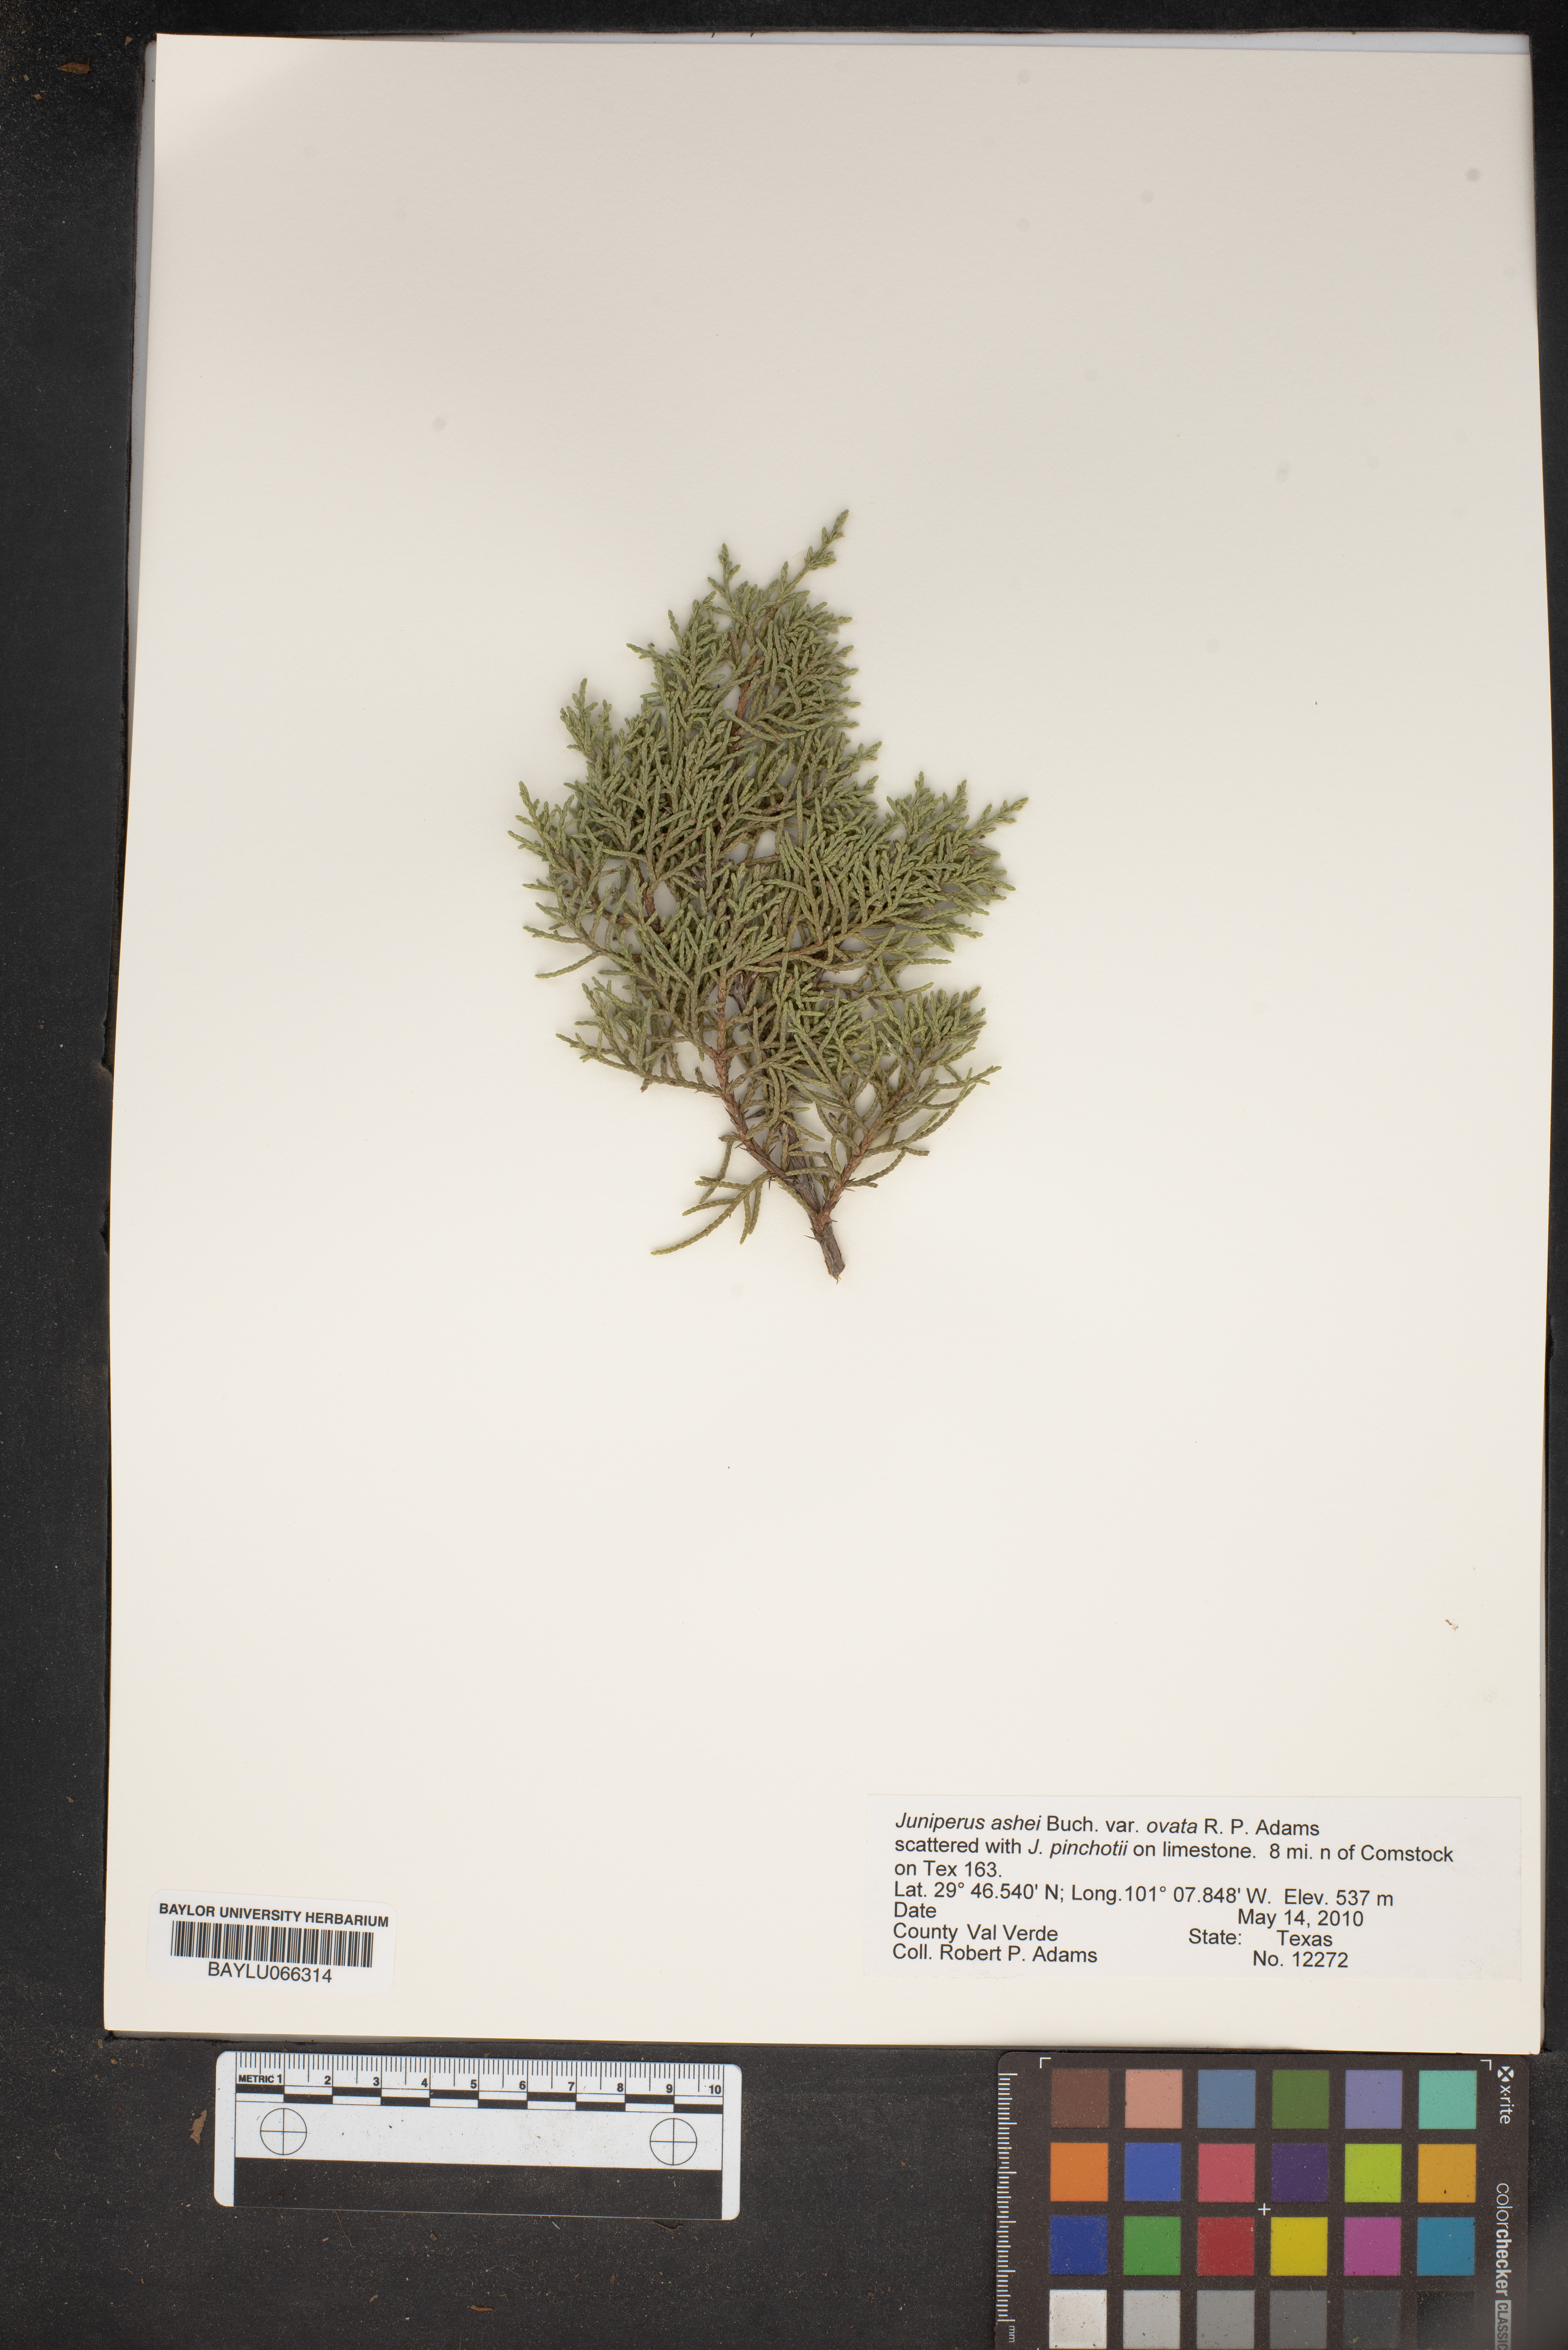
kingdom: Plantae
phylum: Tracheophyta
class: Pinopsida
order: Pinales
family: Cupressaceae
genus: Juniperus
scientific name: Juniperus ashei
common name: Mexican juniper
